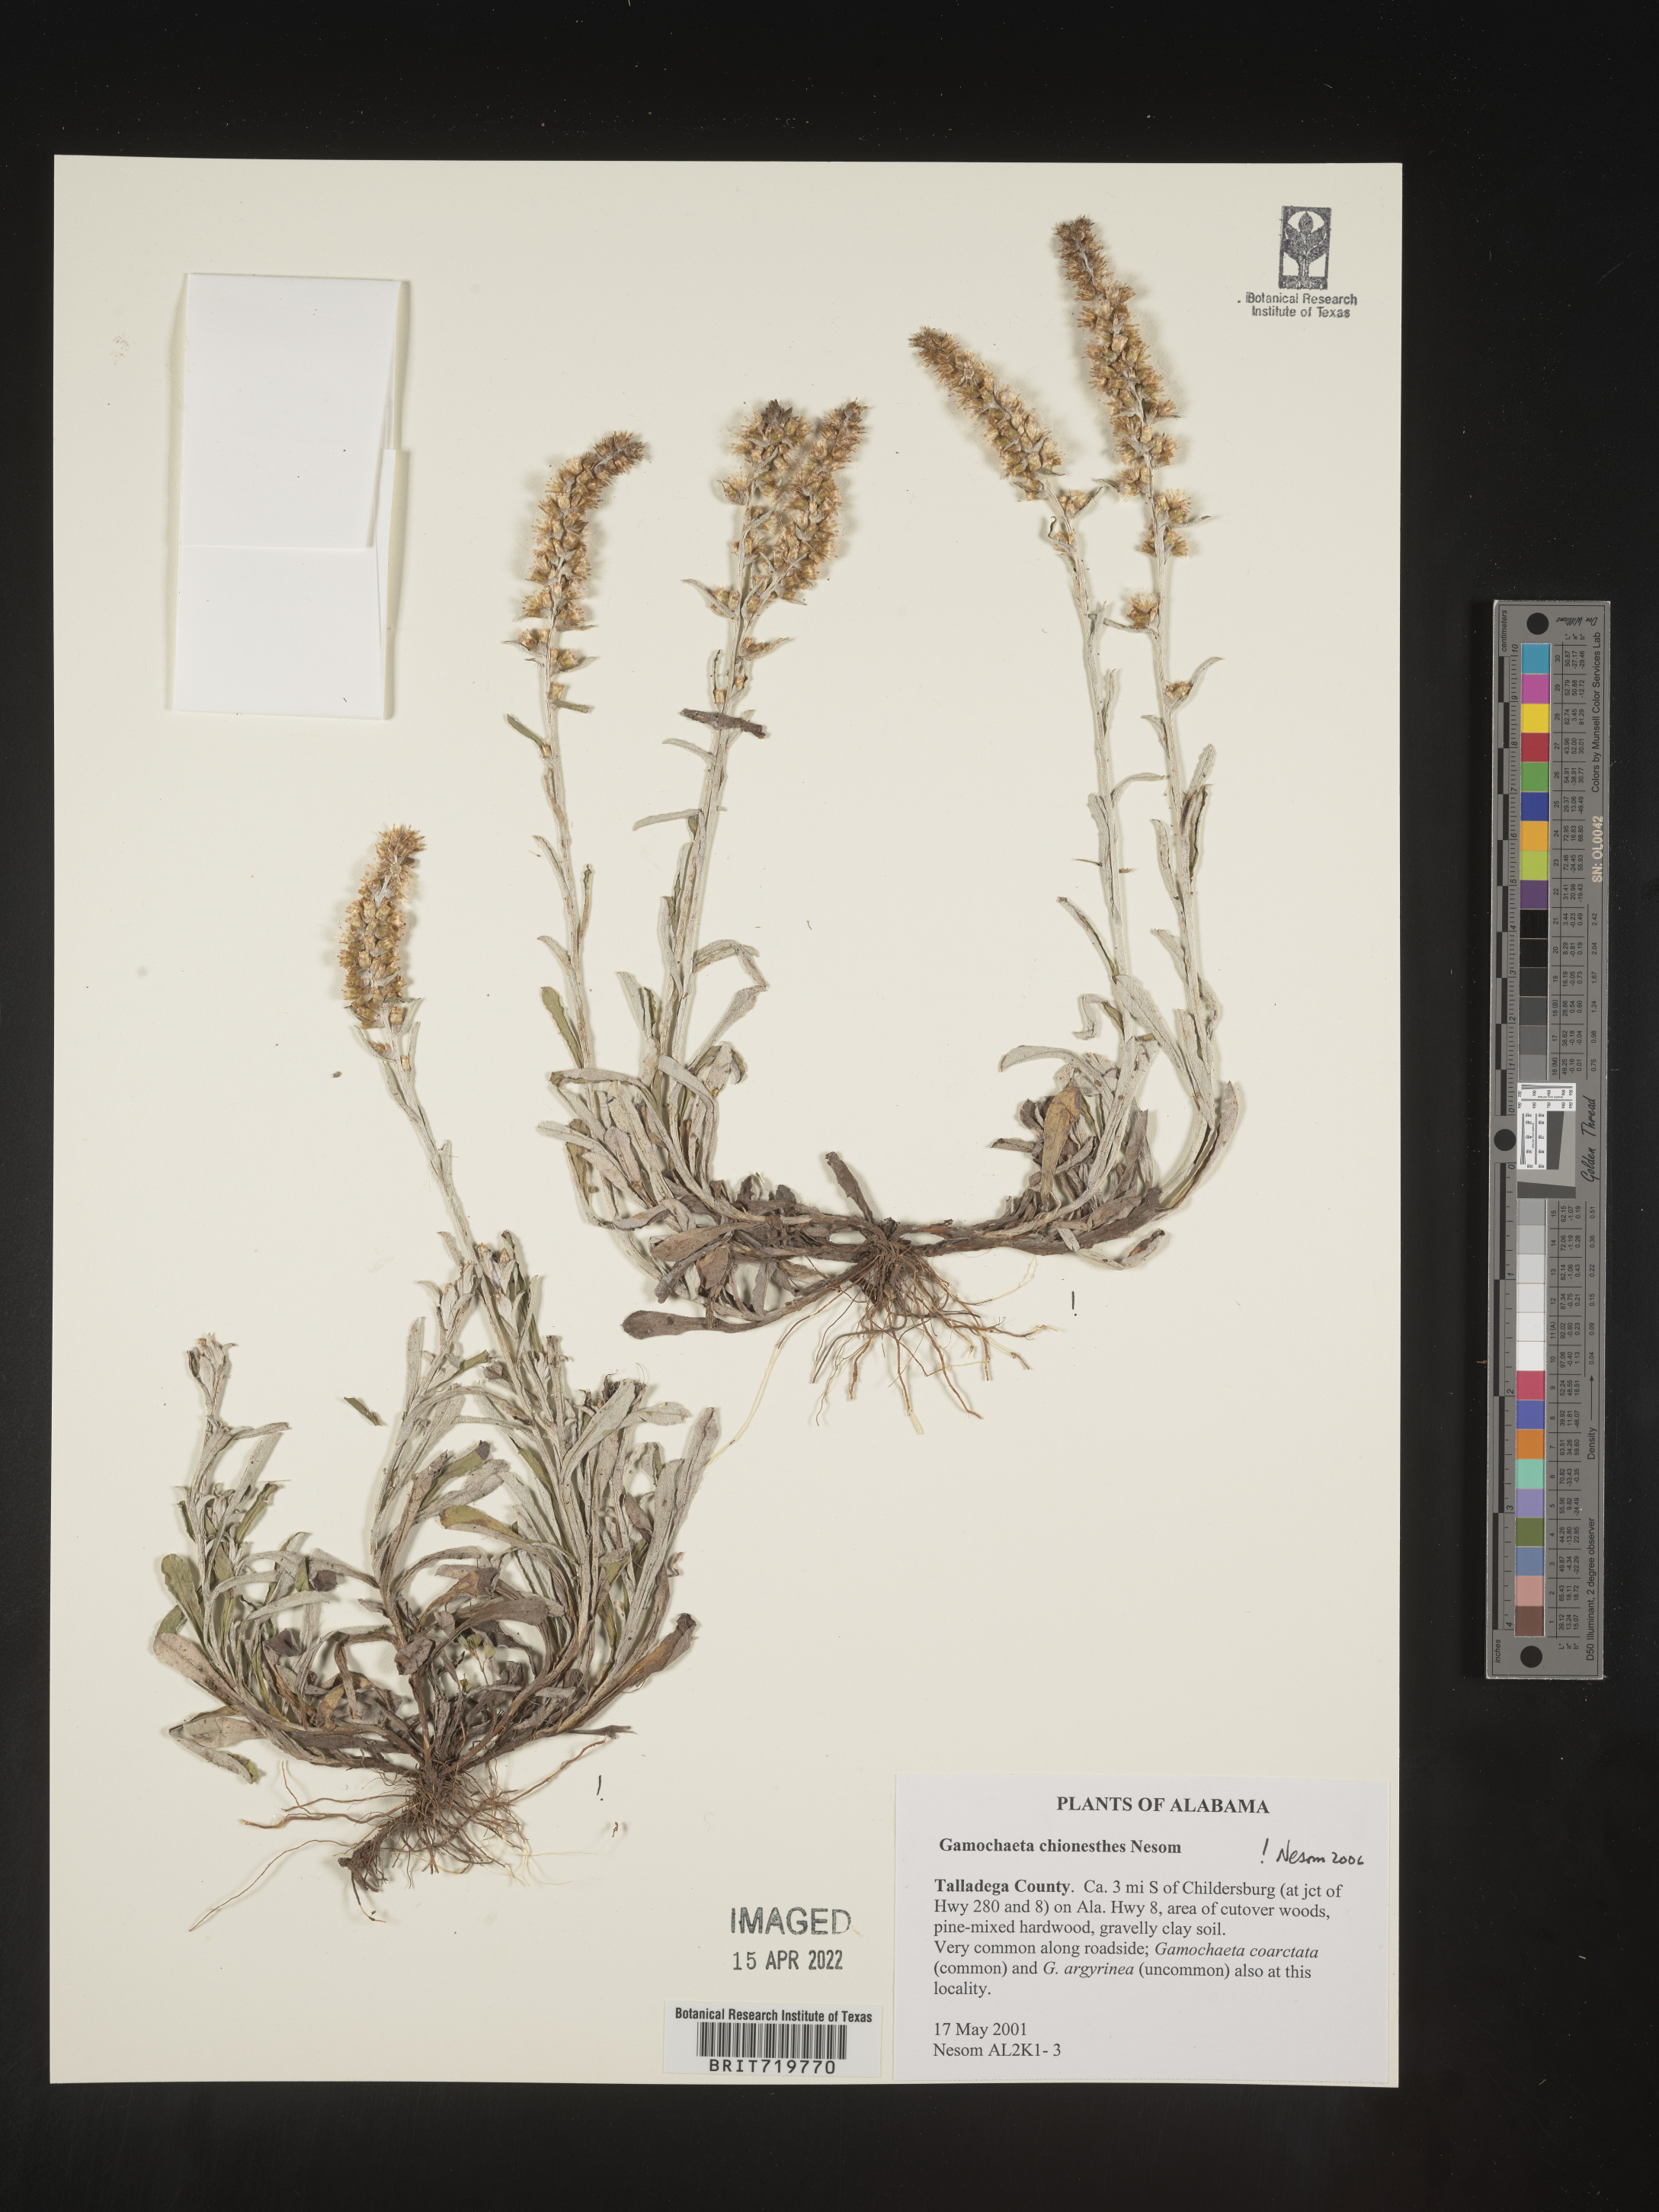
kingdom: Plantae
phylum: Tracheophyta
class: Magnoliopsida
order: Asterales
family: Asteraceae
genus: Gamochaeta
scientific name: Gamochaeta chionesthes
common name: Gray everlasting
